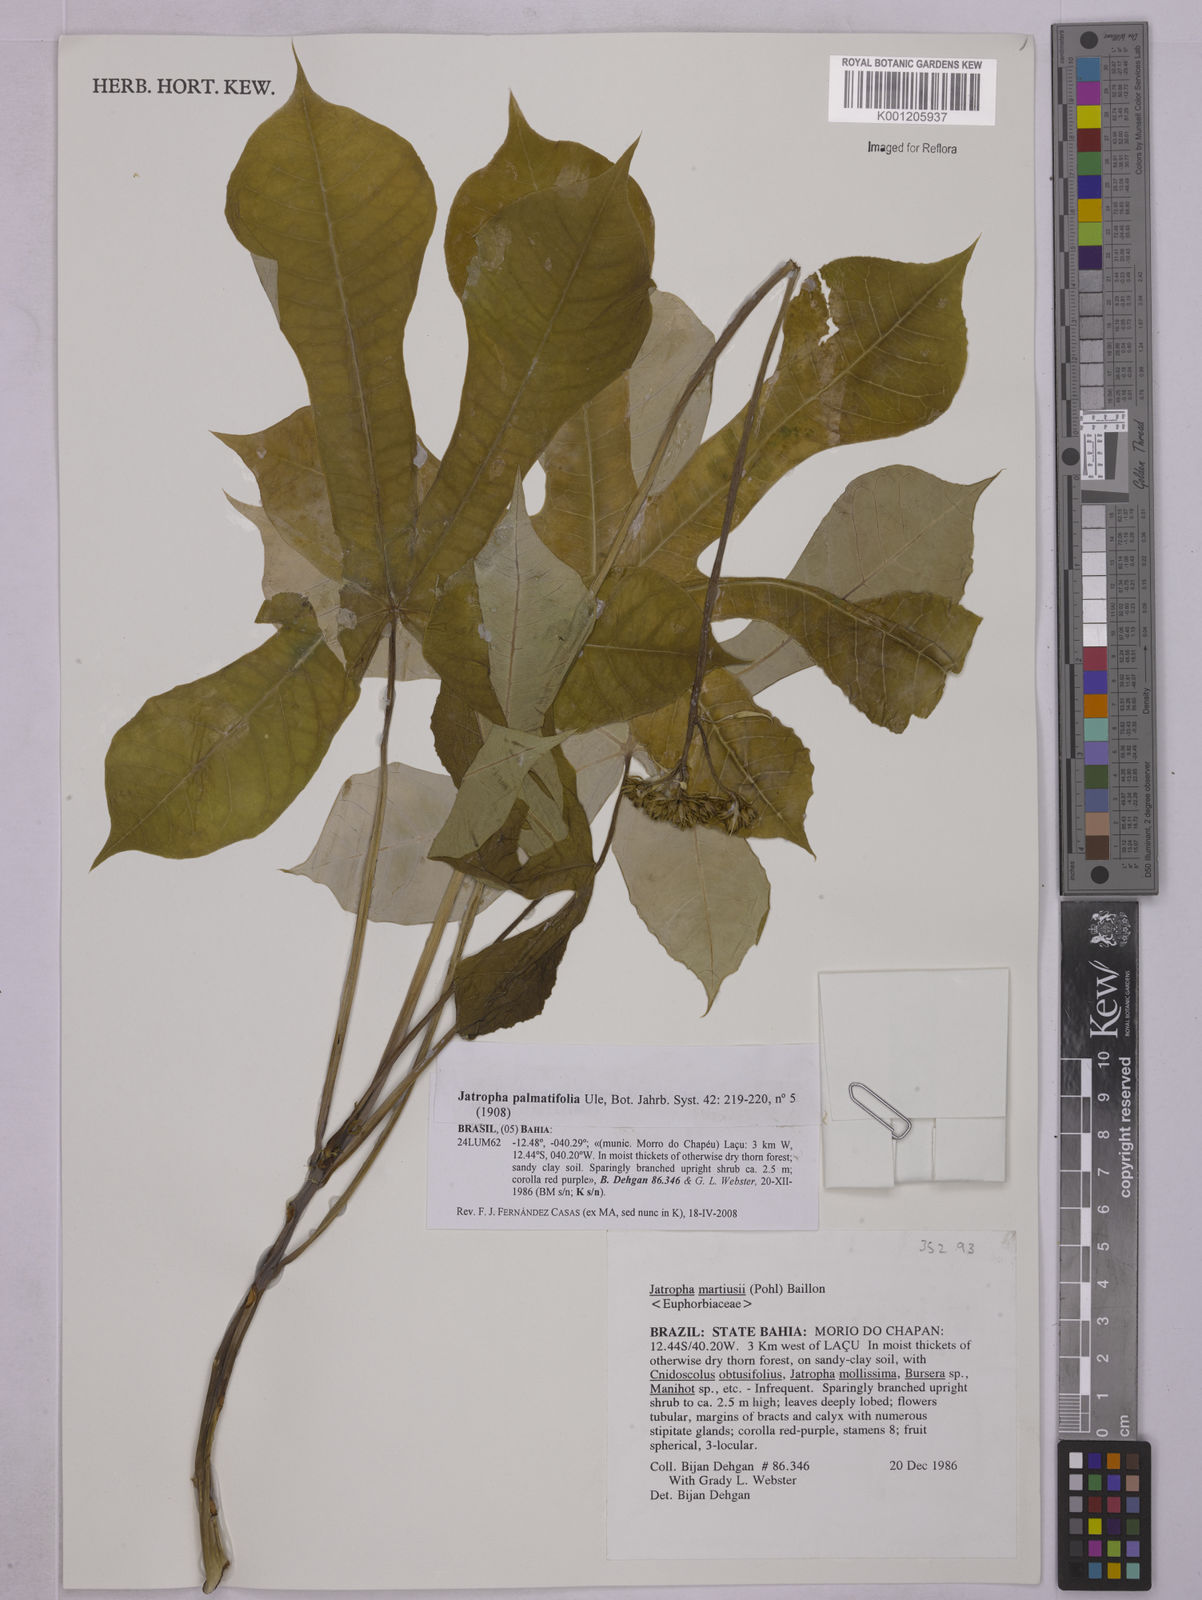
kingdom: Plantae
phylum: Tracheophyta
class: Magnoliopsida
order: Malpighiales
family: Euphorbiaceae
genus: Jatropha
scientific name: Jatropha martiusii
